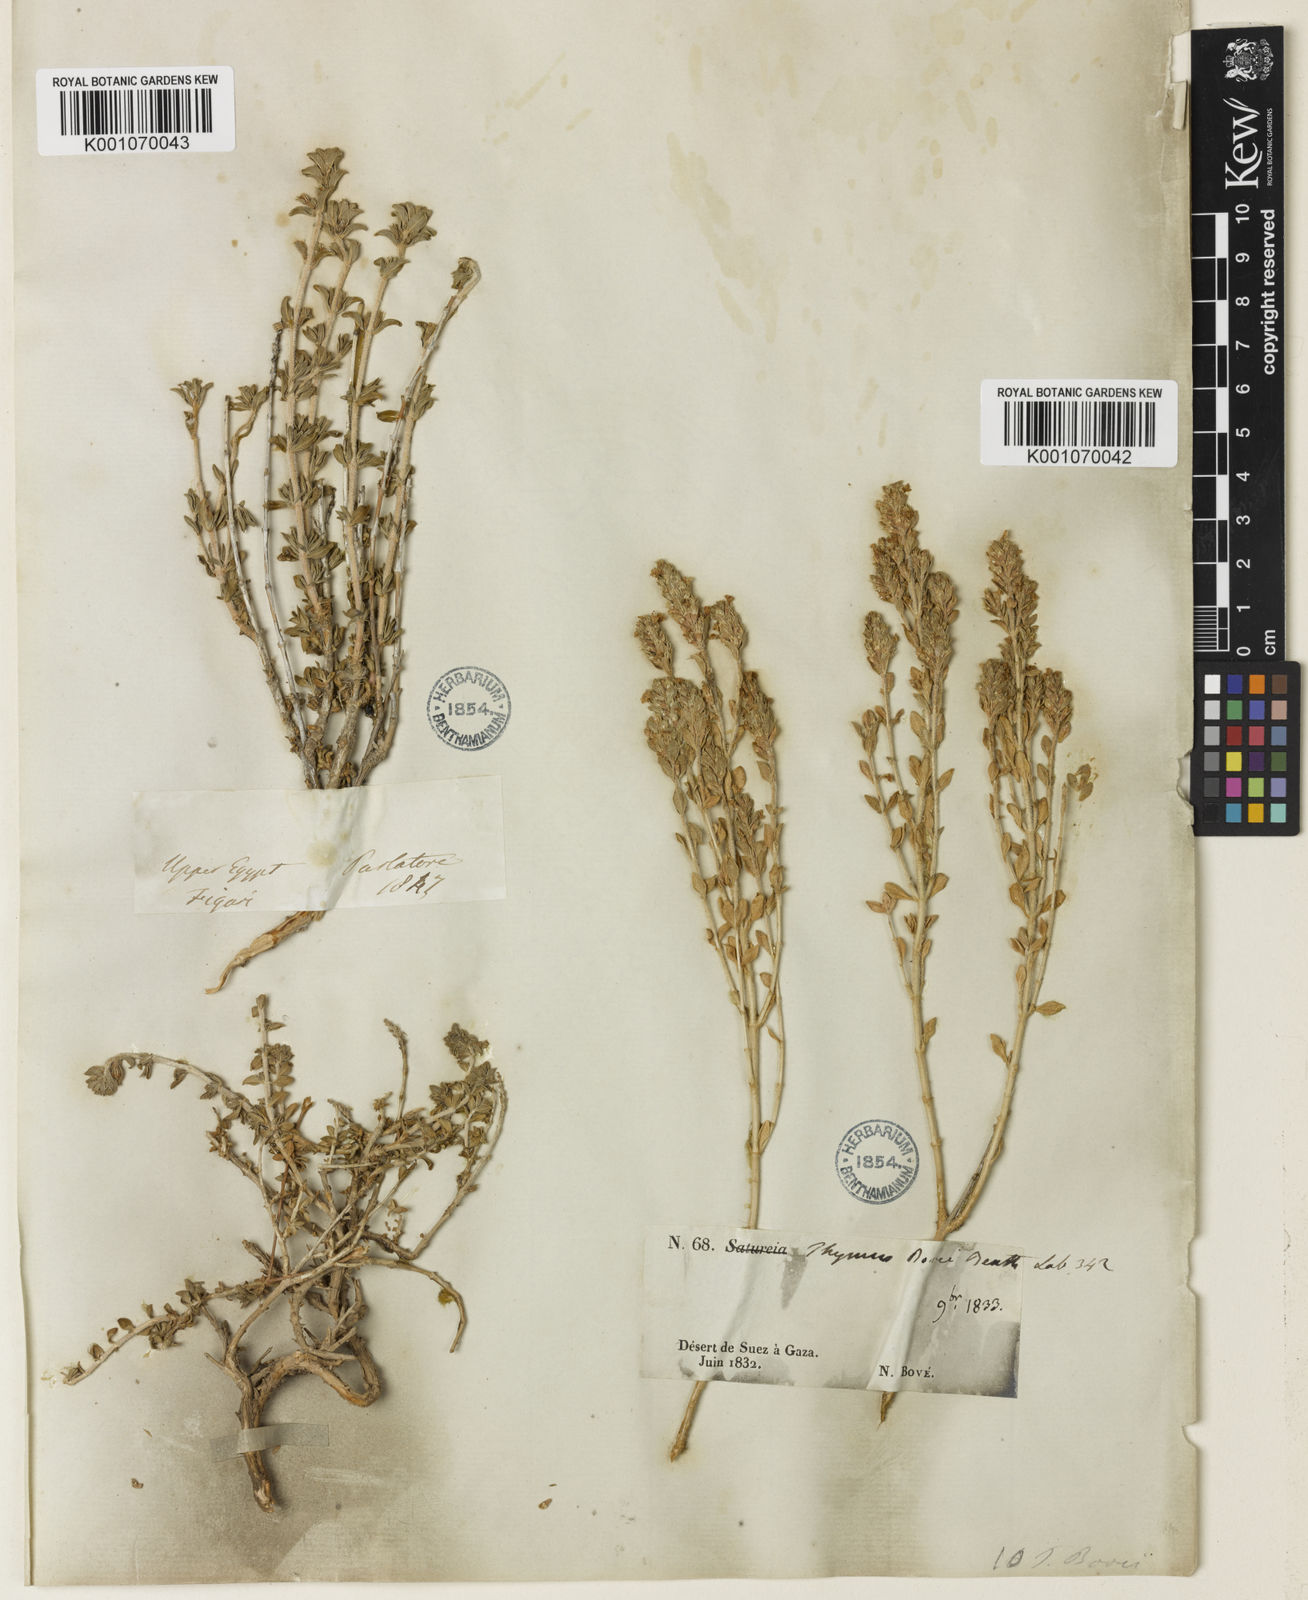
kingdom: Plantae
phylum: Tracheophyta
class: Magnoliopsida
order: Lamiales
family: Lamiaceae
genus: Thymus
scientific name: Thymus serpyllum
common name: Breckland thyme
